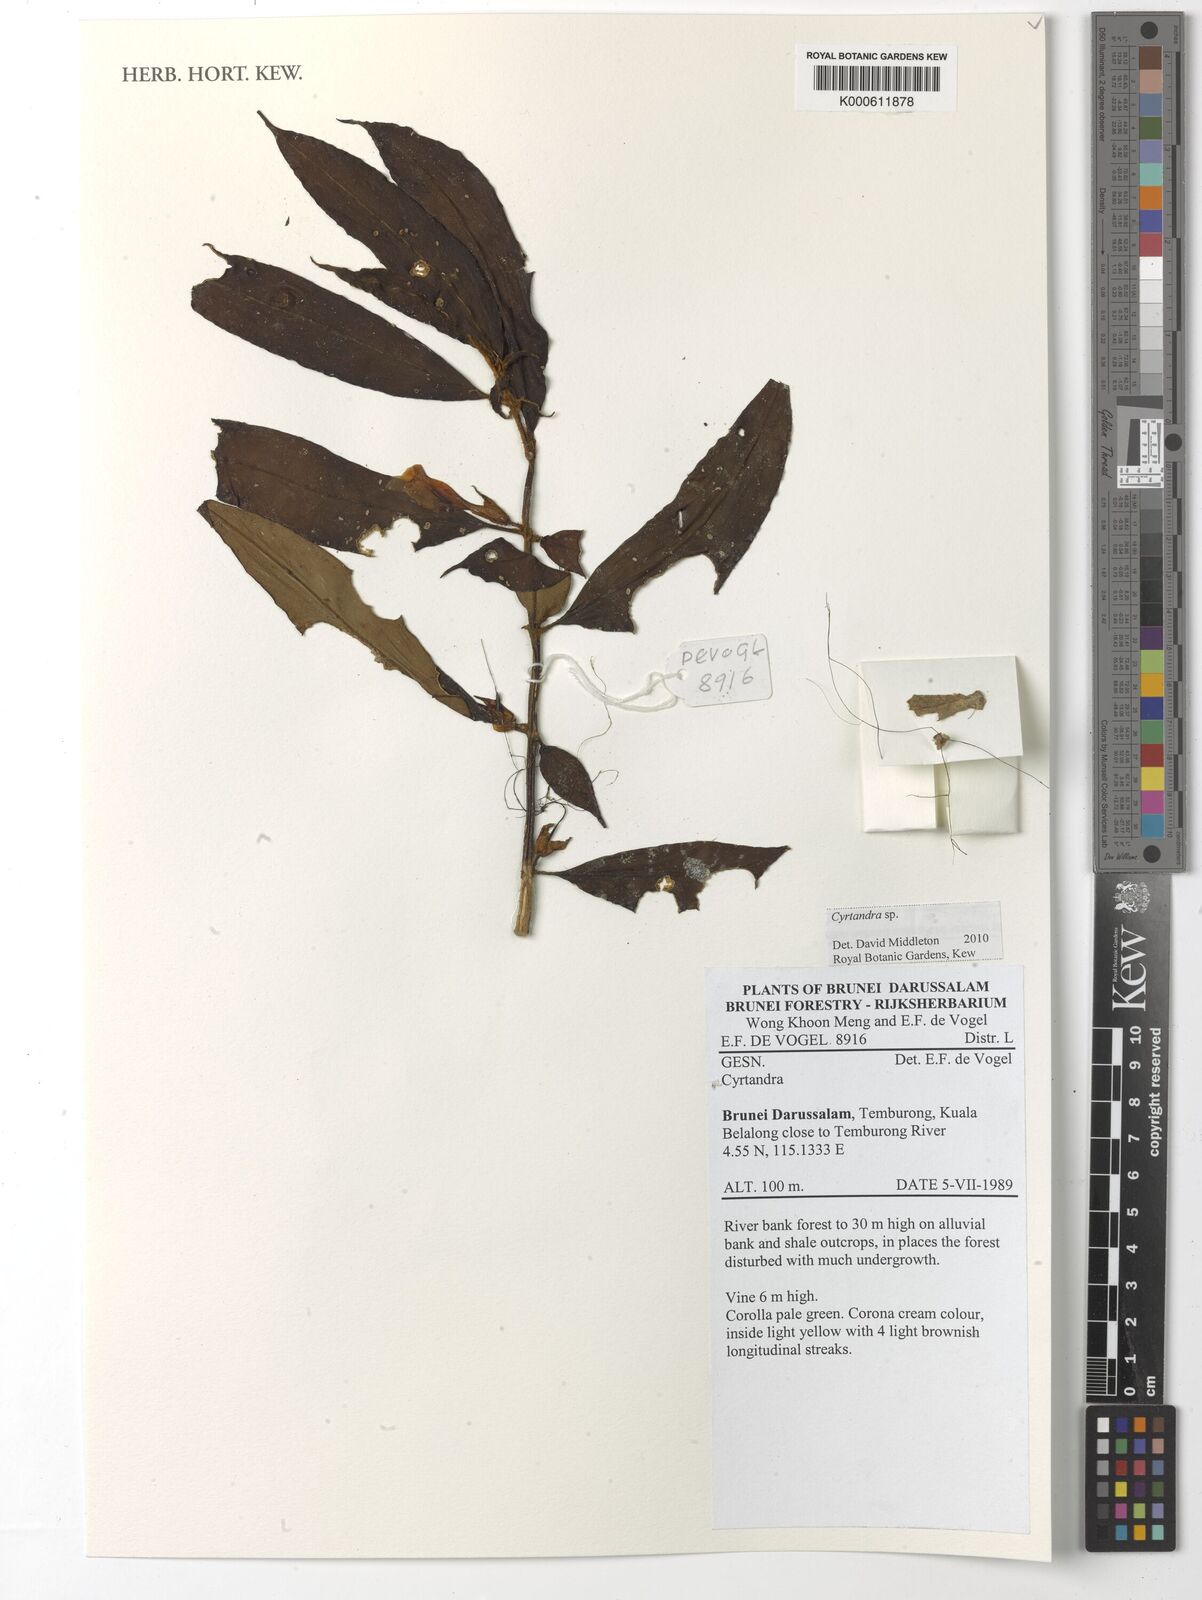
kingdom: Plantae
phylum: Tracheophyta
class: Magnoliopsida
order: Lamiales
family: Gesneriaceae
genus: Cyrtandra
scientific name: Cyrtandra
